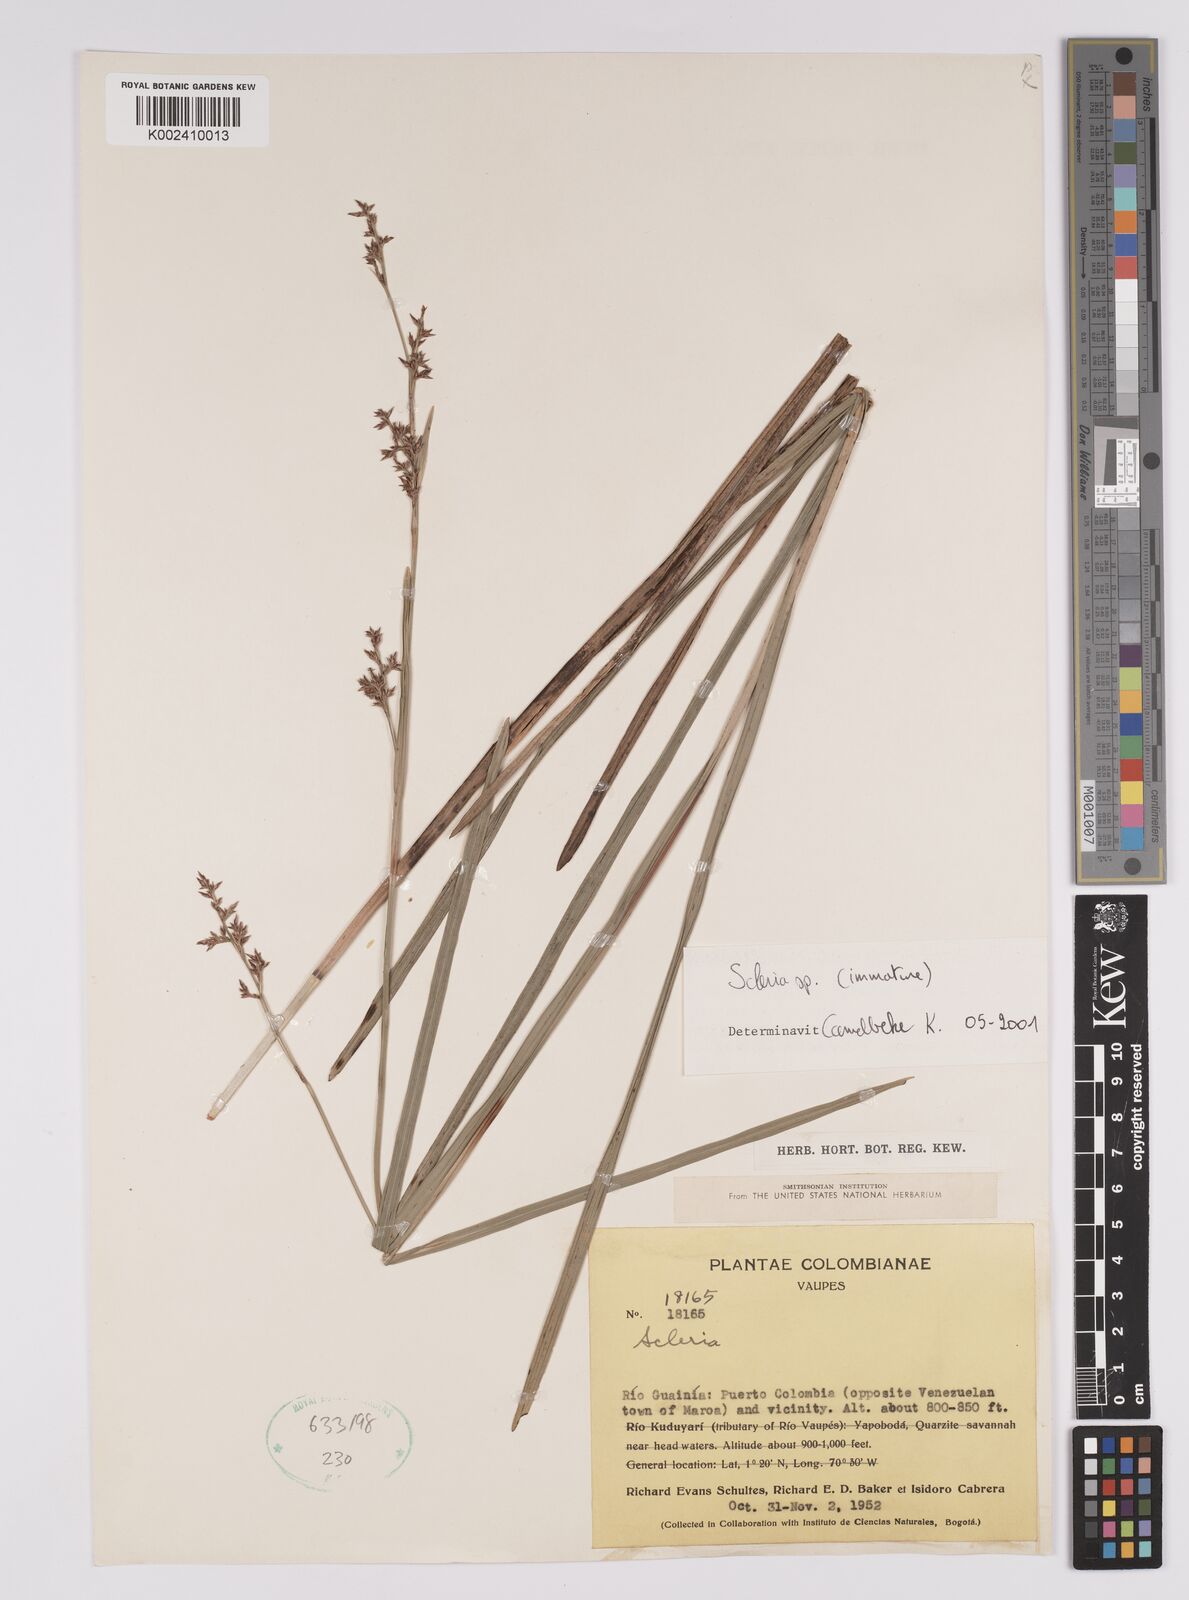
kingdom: Plantae
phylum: Tracheophyta
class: Liliopsida
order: Poales
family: Cyperaceae
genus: Scleria
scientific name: Scleria
